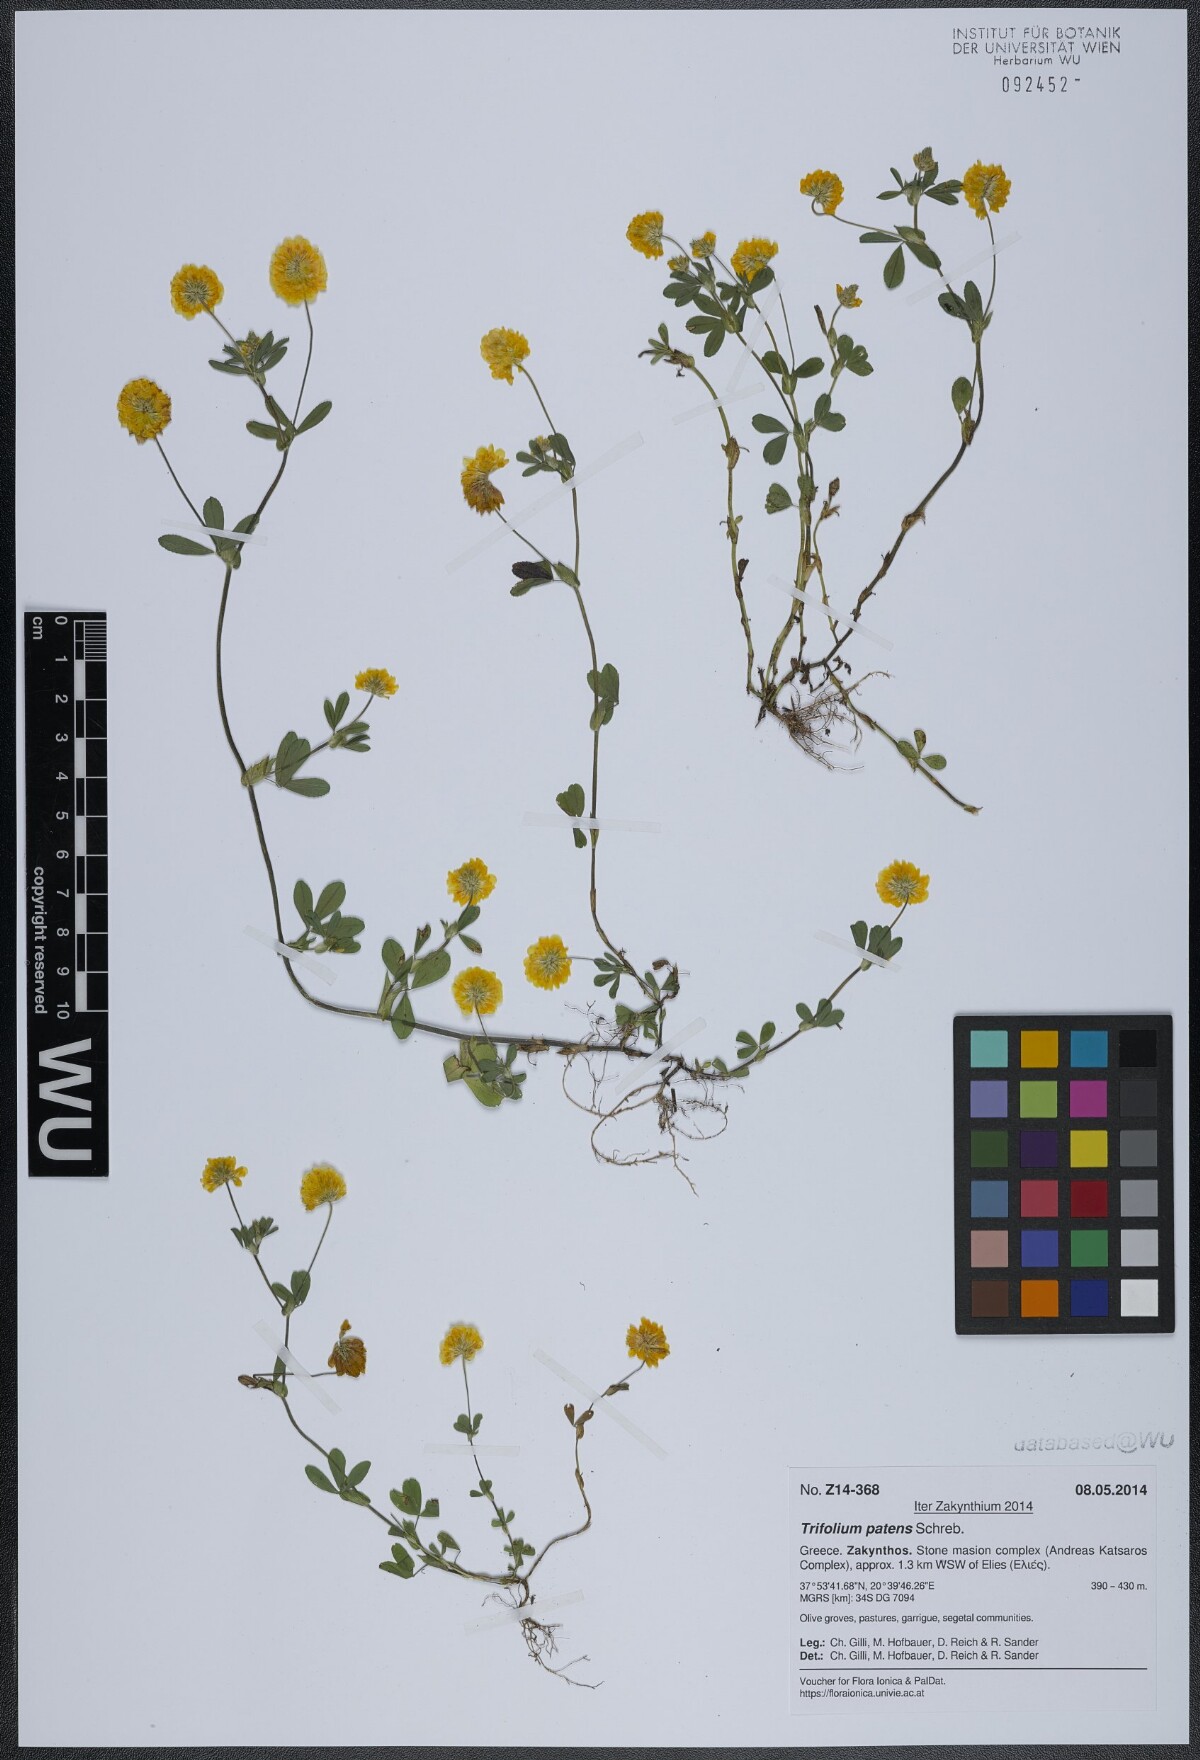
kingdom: Plantae
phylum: Tracheophyta
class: Magnoliopsida
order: Fabales
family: Fabaceae
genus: Trifolium
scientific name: Trifolium patens
